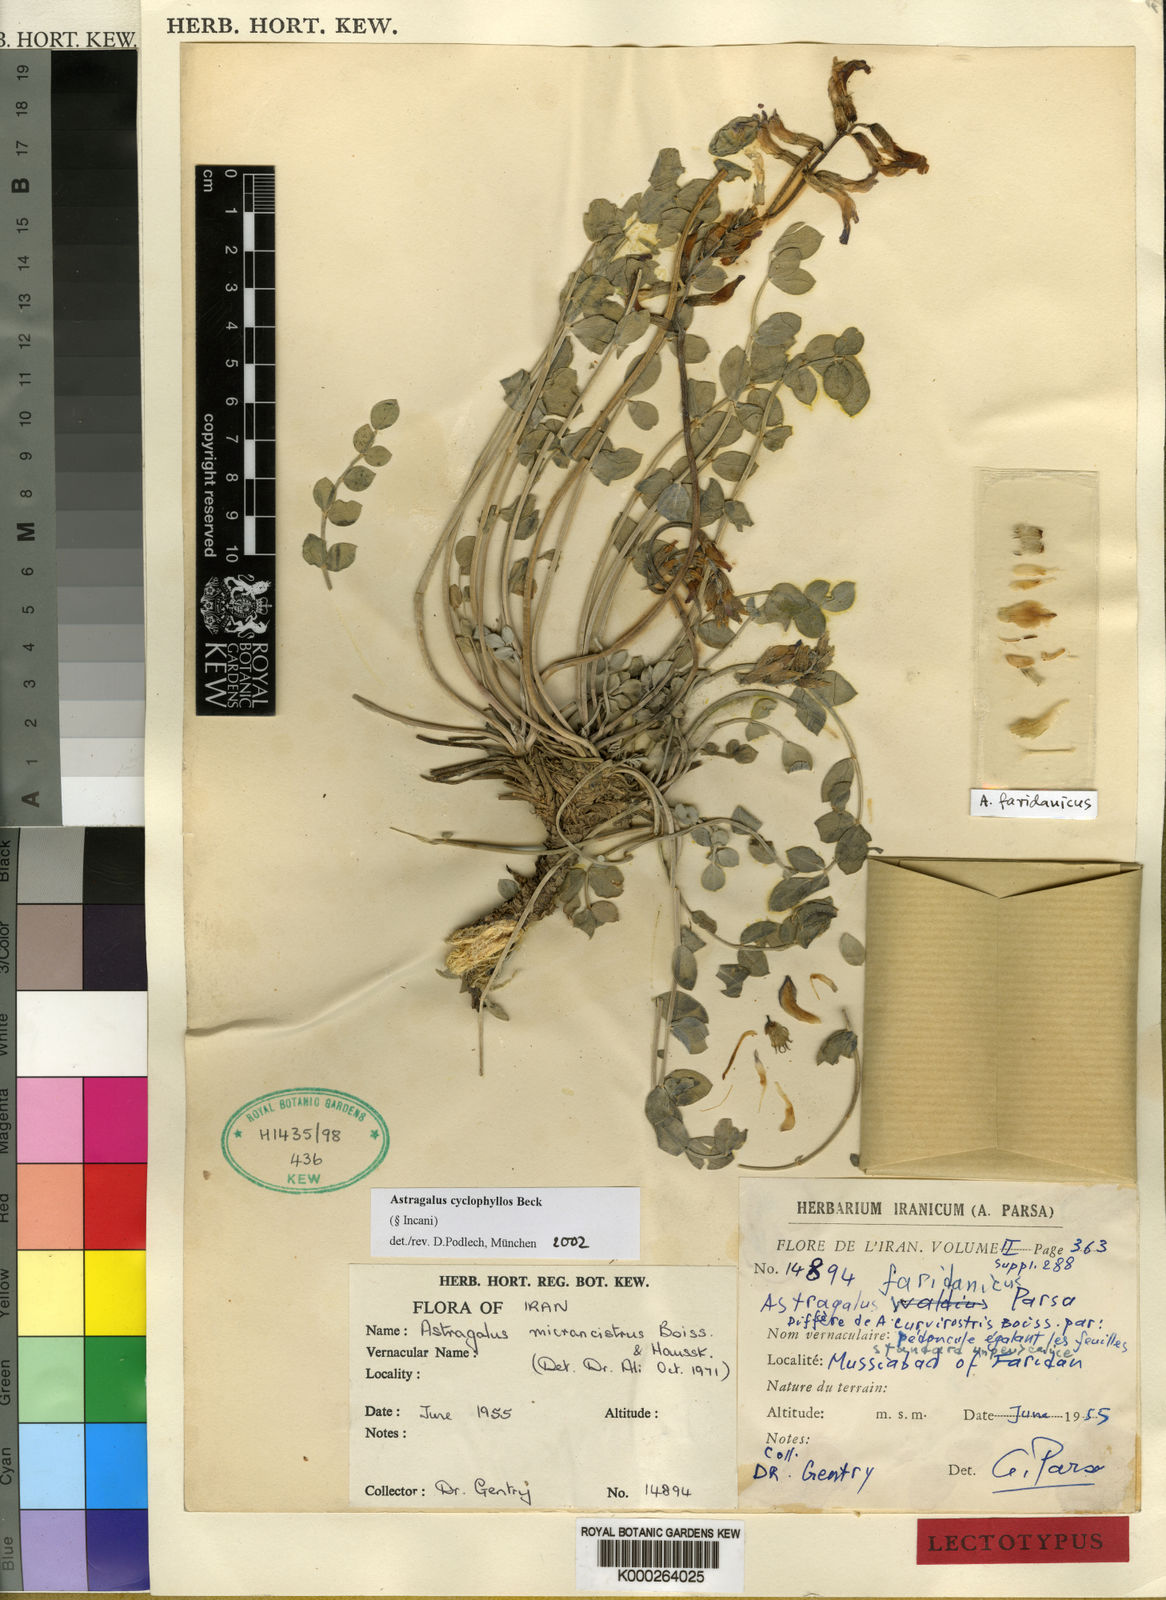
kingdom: Plantae
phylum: Tracheophyta
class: Magnoliopsida
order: Fabales
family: Fabaceae
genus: Astragalus
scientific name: Astragalus
